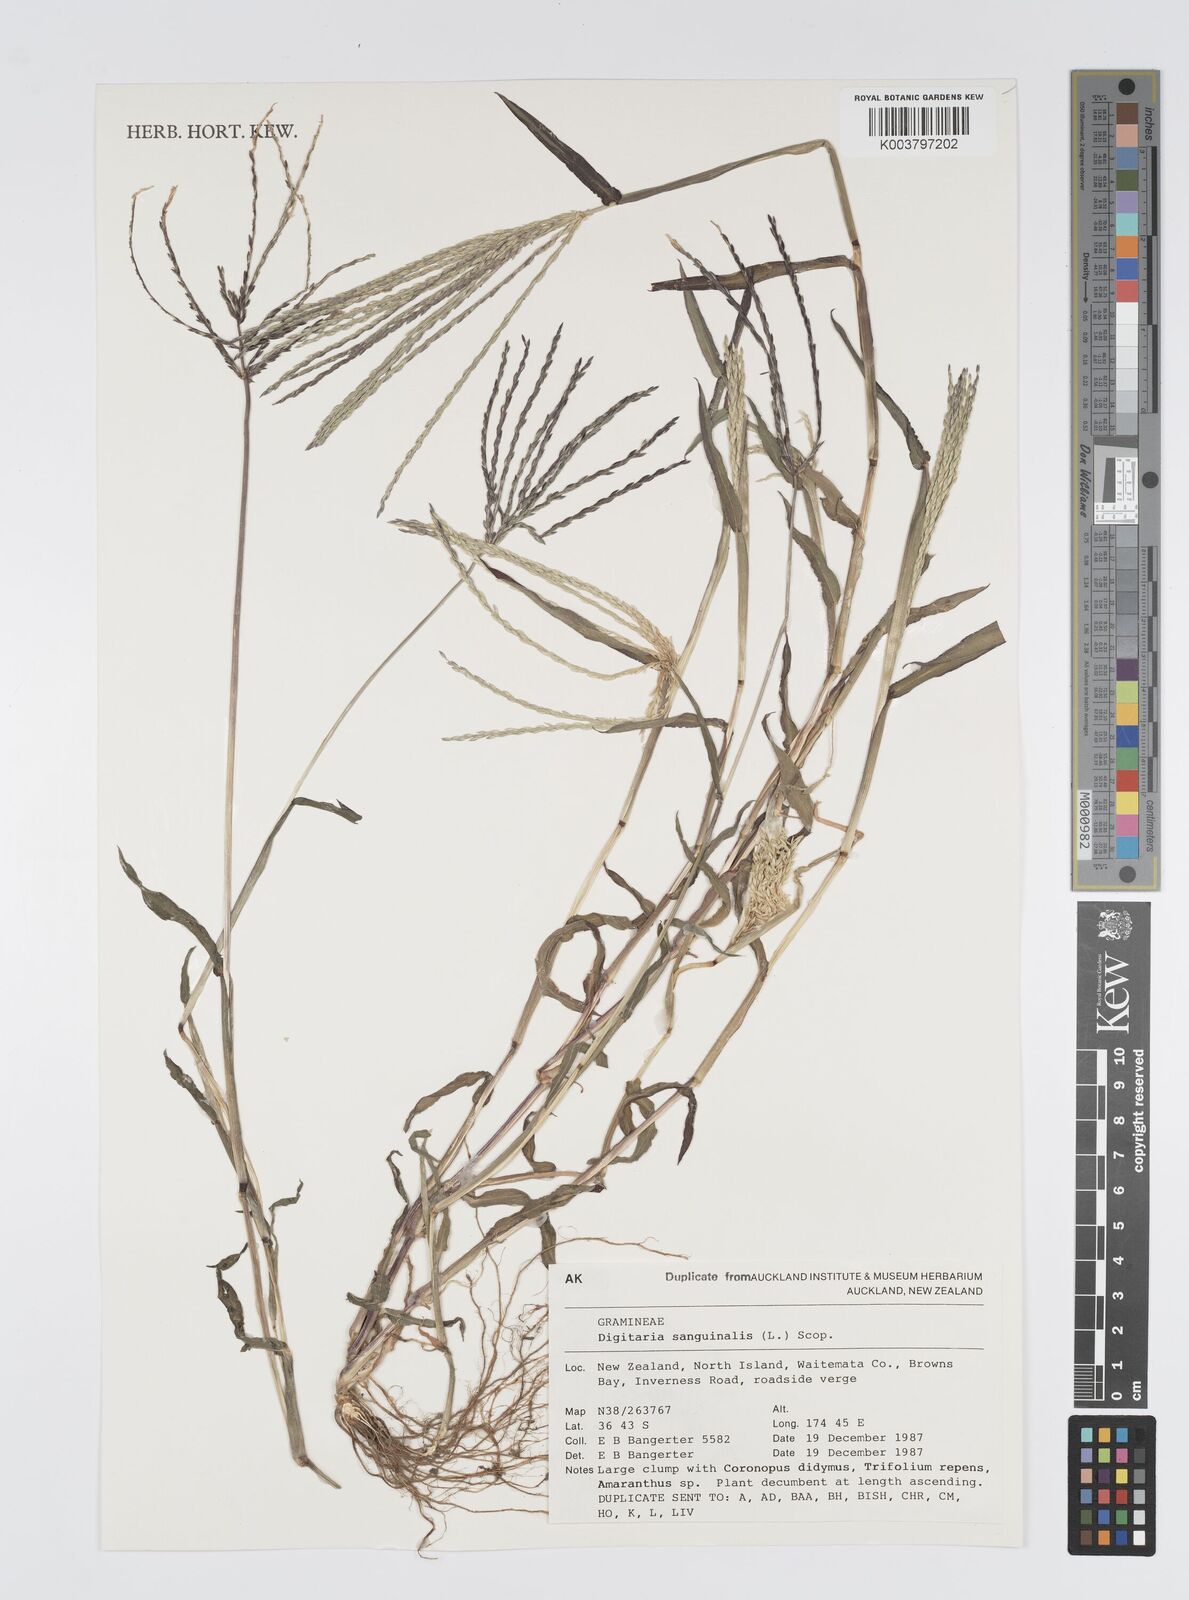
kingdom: Plantae
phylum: Tracheophyta
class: Liliopsida
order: Poales
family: Poaceae
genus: Digitaria
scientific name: Digitaria sanguinalis
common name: Hairy crabgrass
